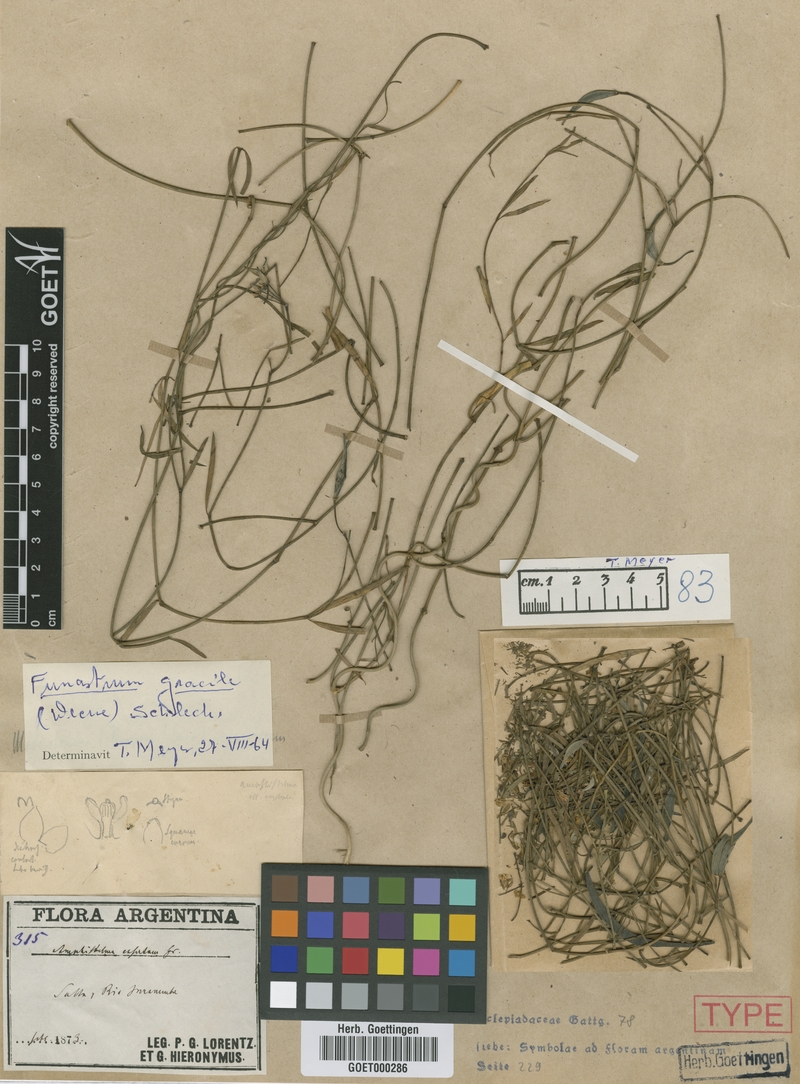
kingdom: Plantae
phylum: Tracheophyta
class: Magnoliopsida
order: Gentianales
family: Apocynaceae
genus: Funastrum
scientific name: Funastrum gracile
